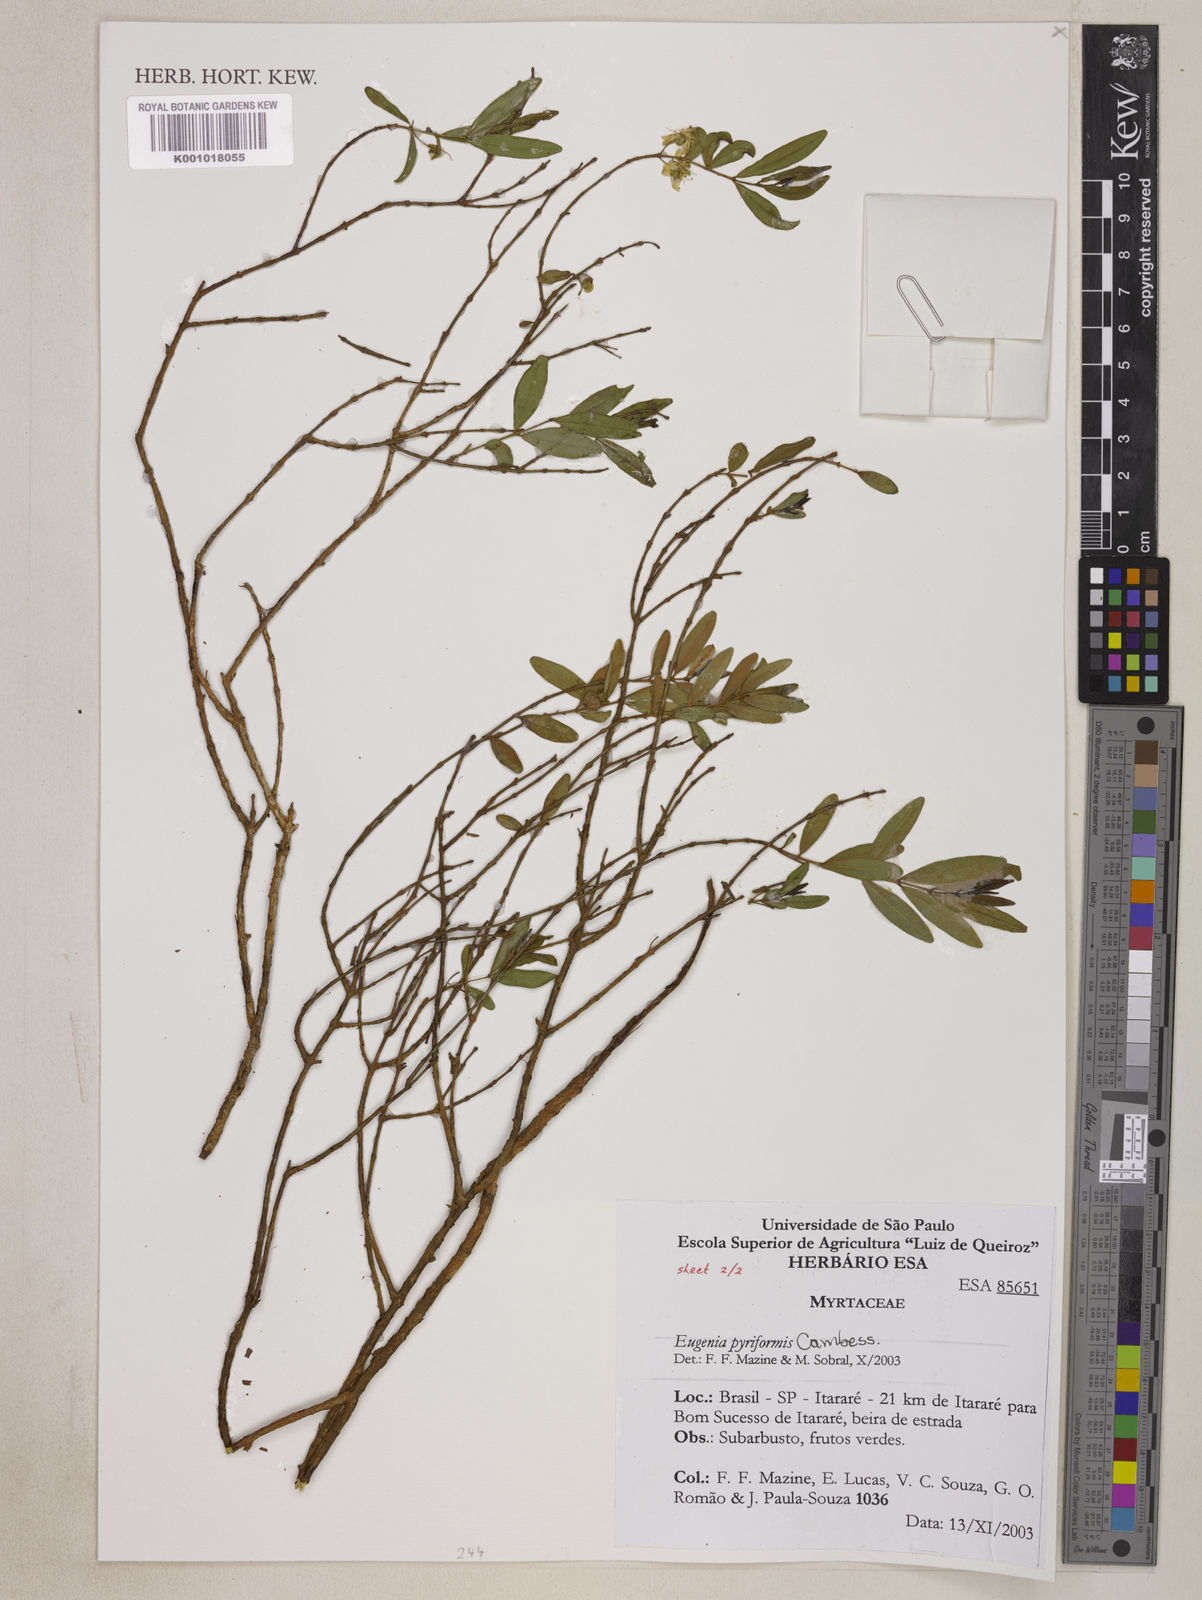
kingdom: Plantae
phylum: Tracheophyta
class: Magnoliopsida
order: Myrtales
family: Myrtaceae
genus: Eugenia
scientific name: Eugenia pyriformis
